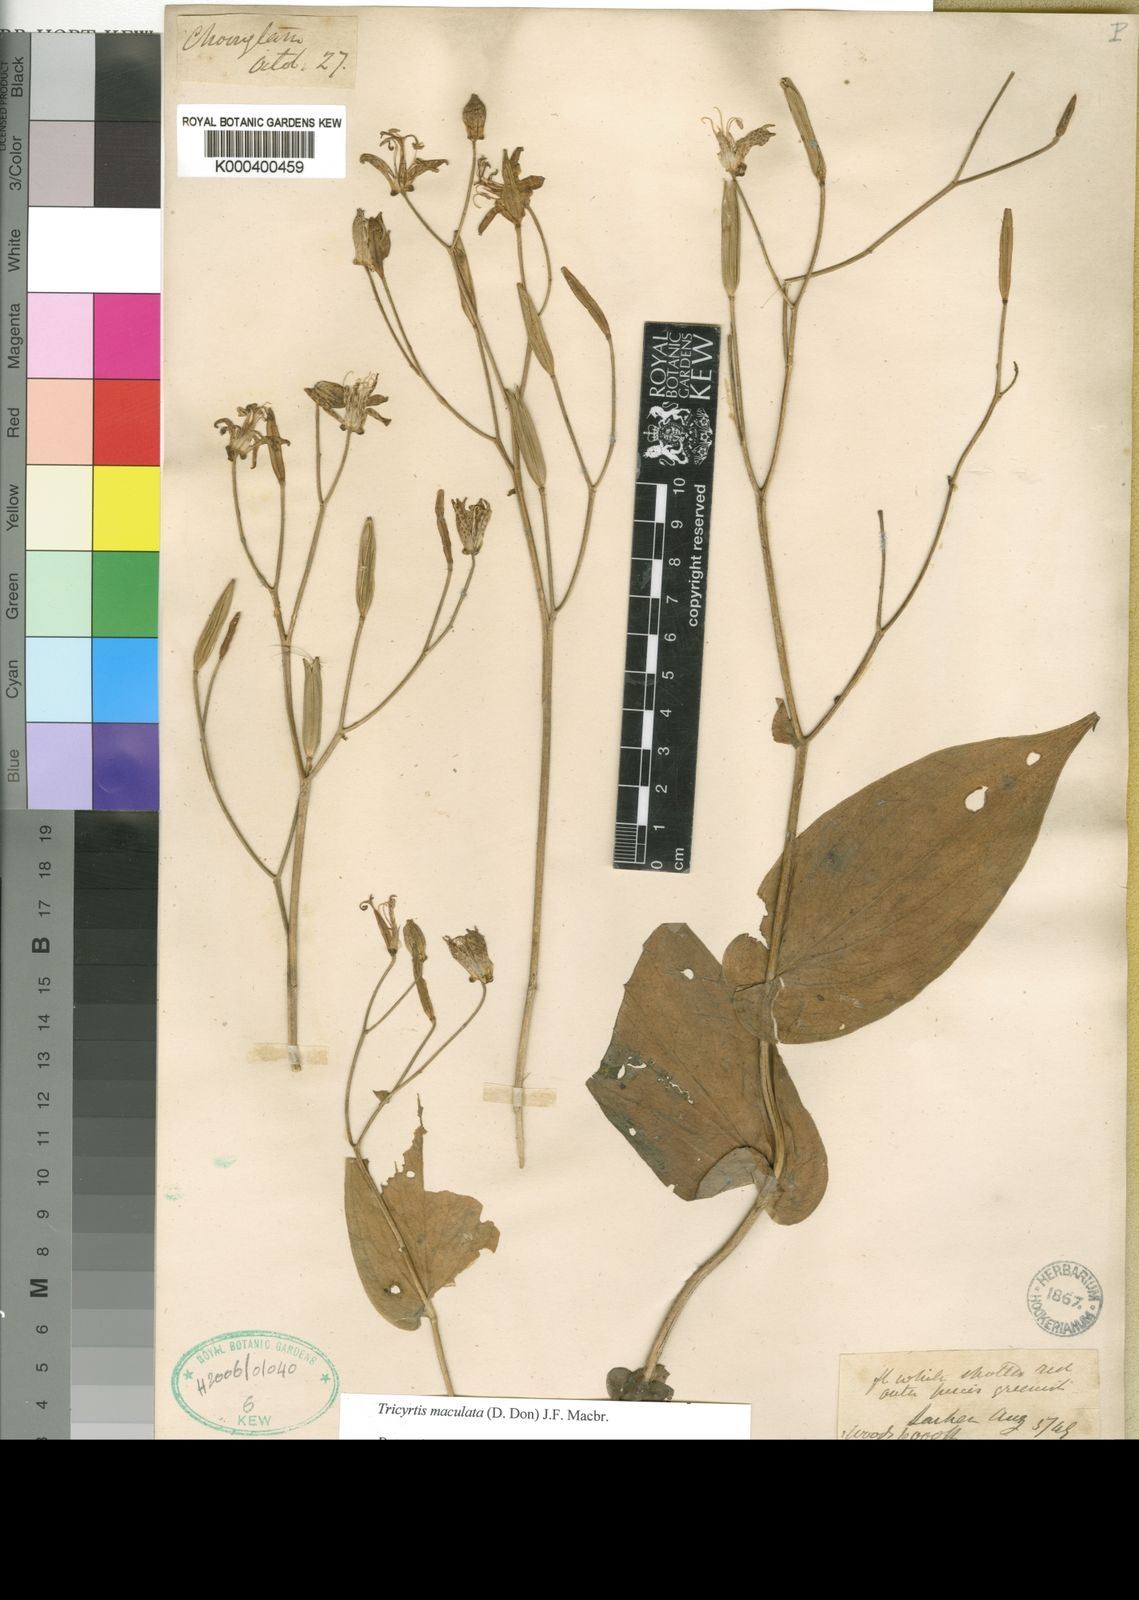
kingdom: Plantae
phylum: Tracheophyta
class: Liliopsida
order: Liliales
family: Liliaceae
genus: Tricyrtis
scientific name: Tricyrtis maculata
